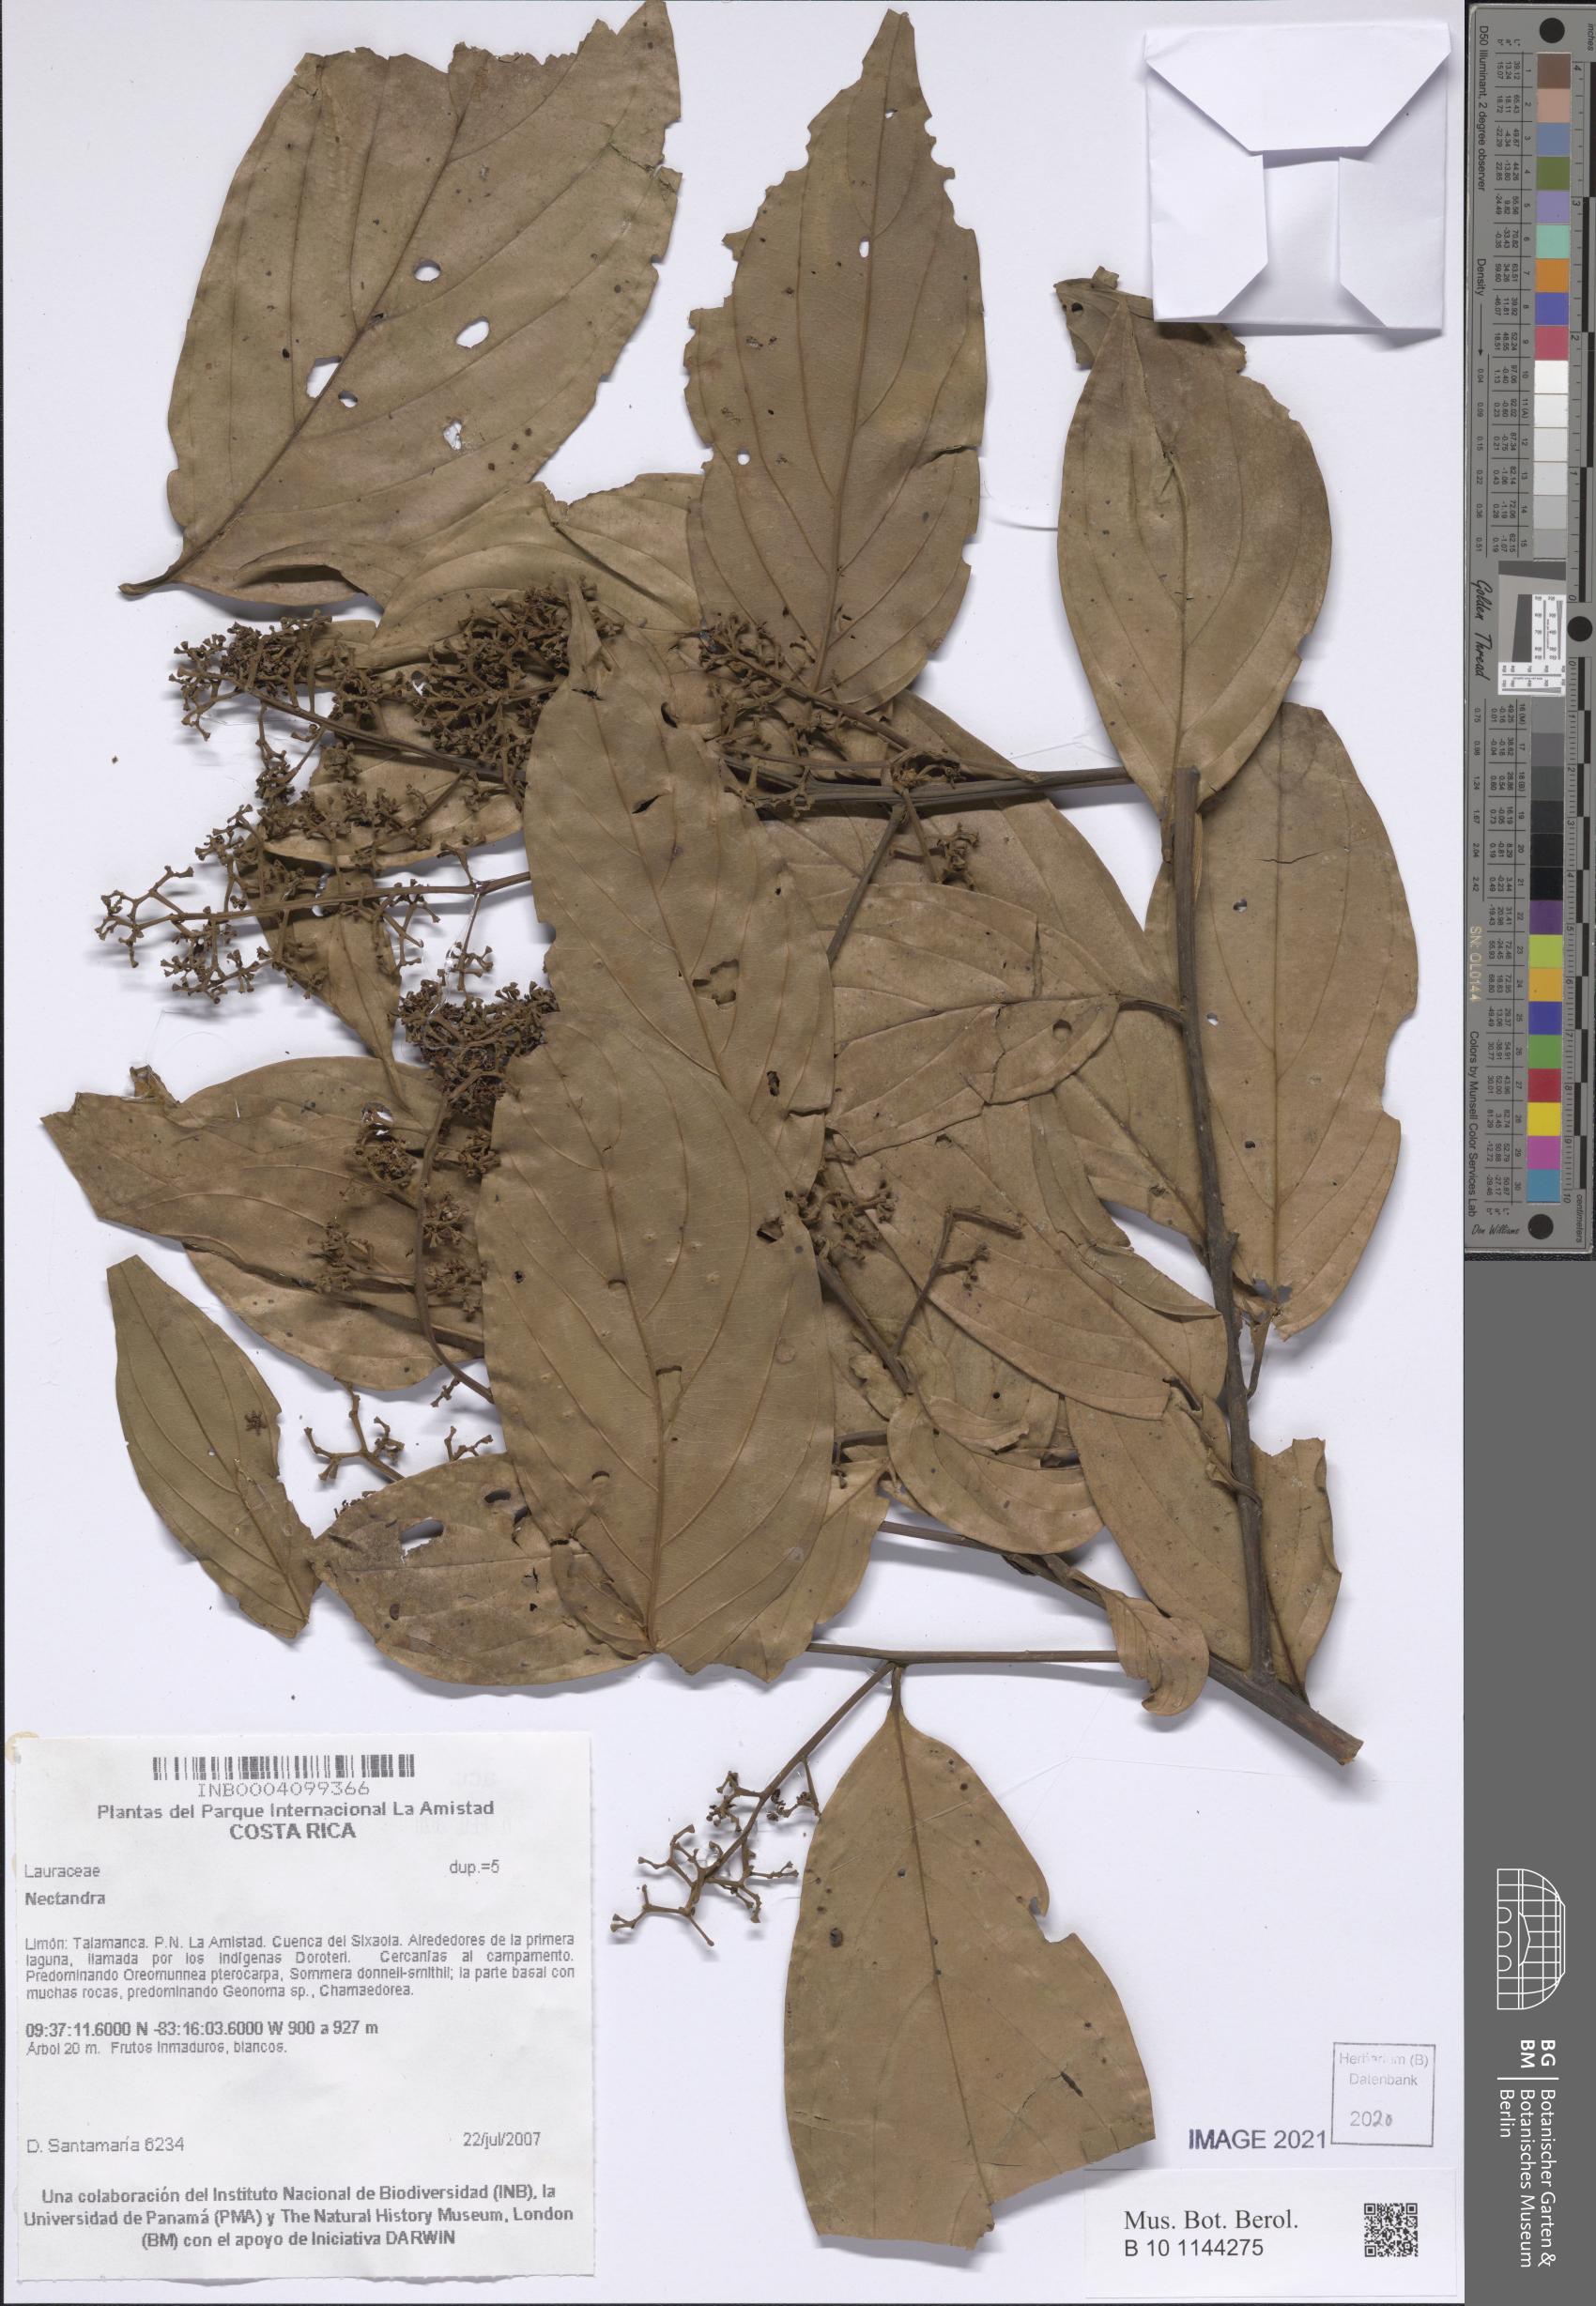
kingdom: Plantae
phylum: Tracheophyta
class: Magnoliopsida
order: Laurales
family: Lauraceae
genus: Nectandra
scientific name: Nectandra
